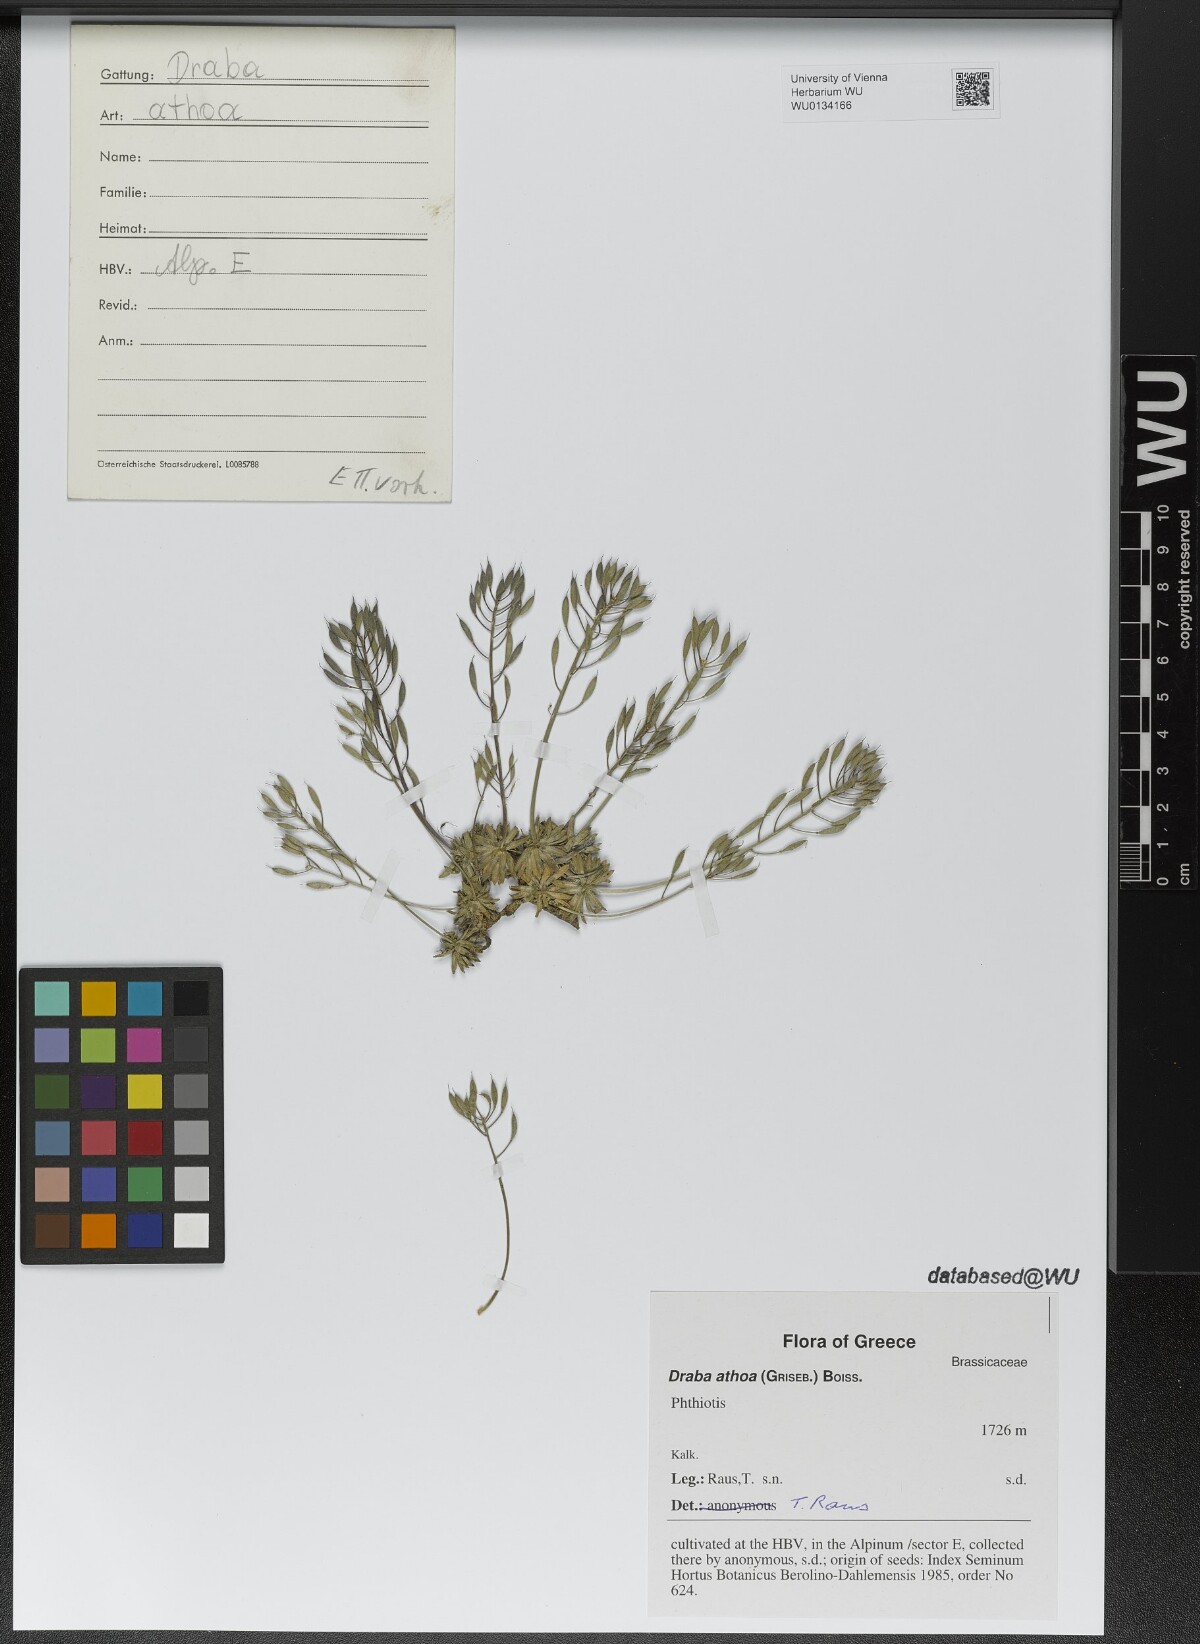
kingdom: Plantae
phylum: Tracheophyta
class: Magnoliopsida
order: Brassicales
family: Brassicaceae
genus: Draba
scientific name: Draba lasiocarpa
